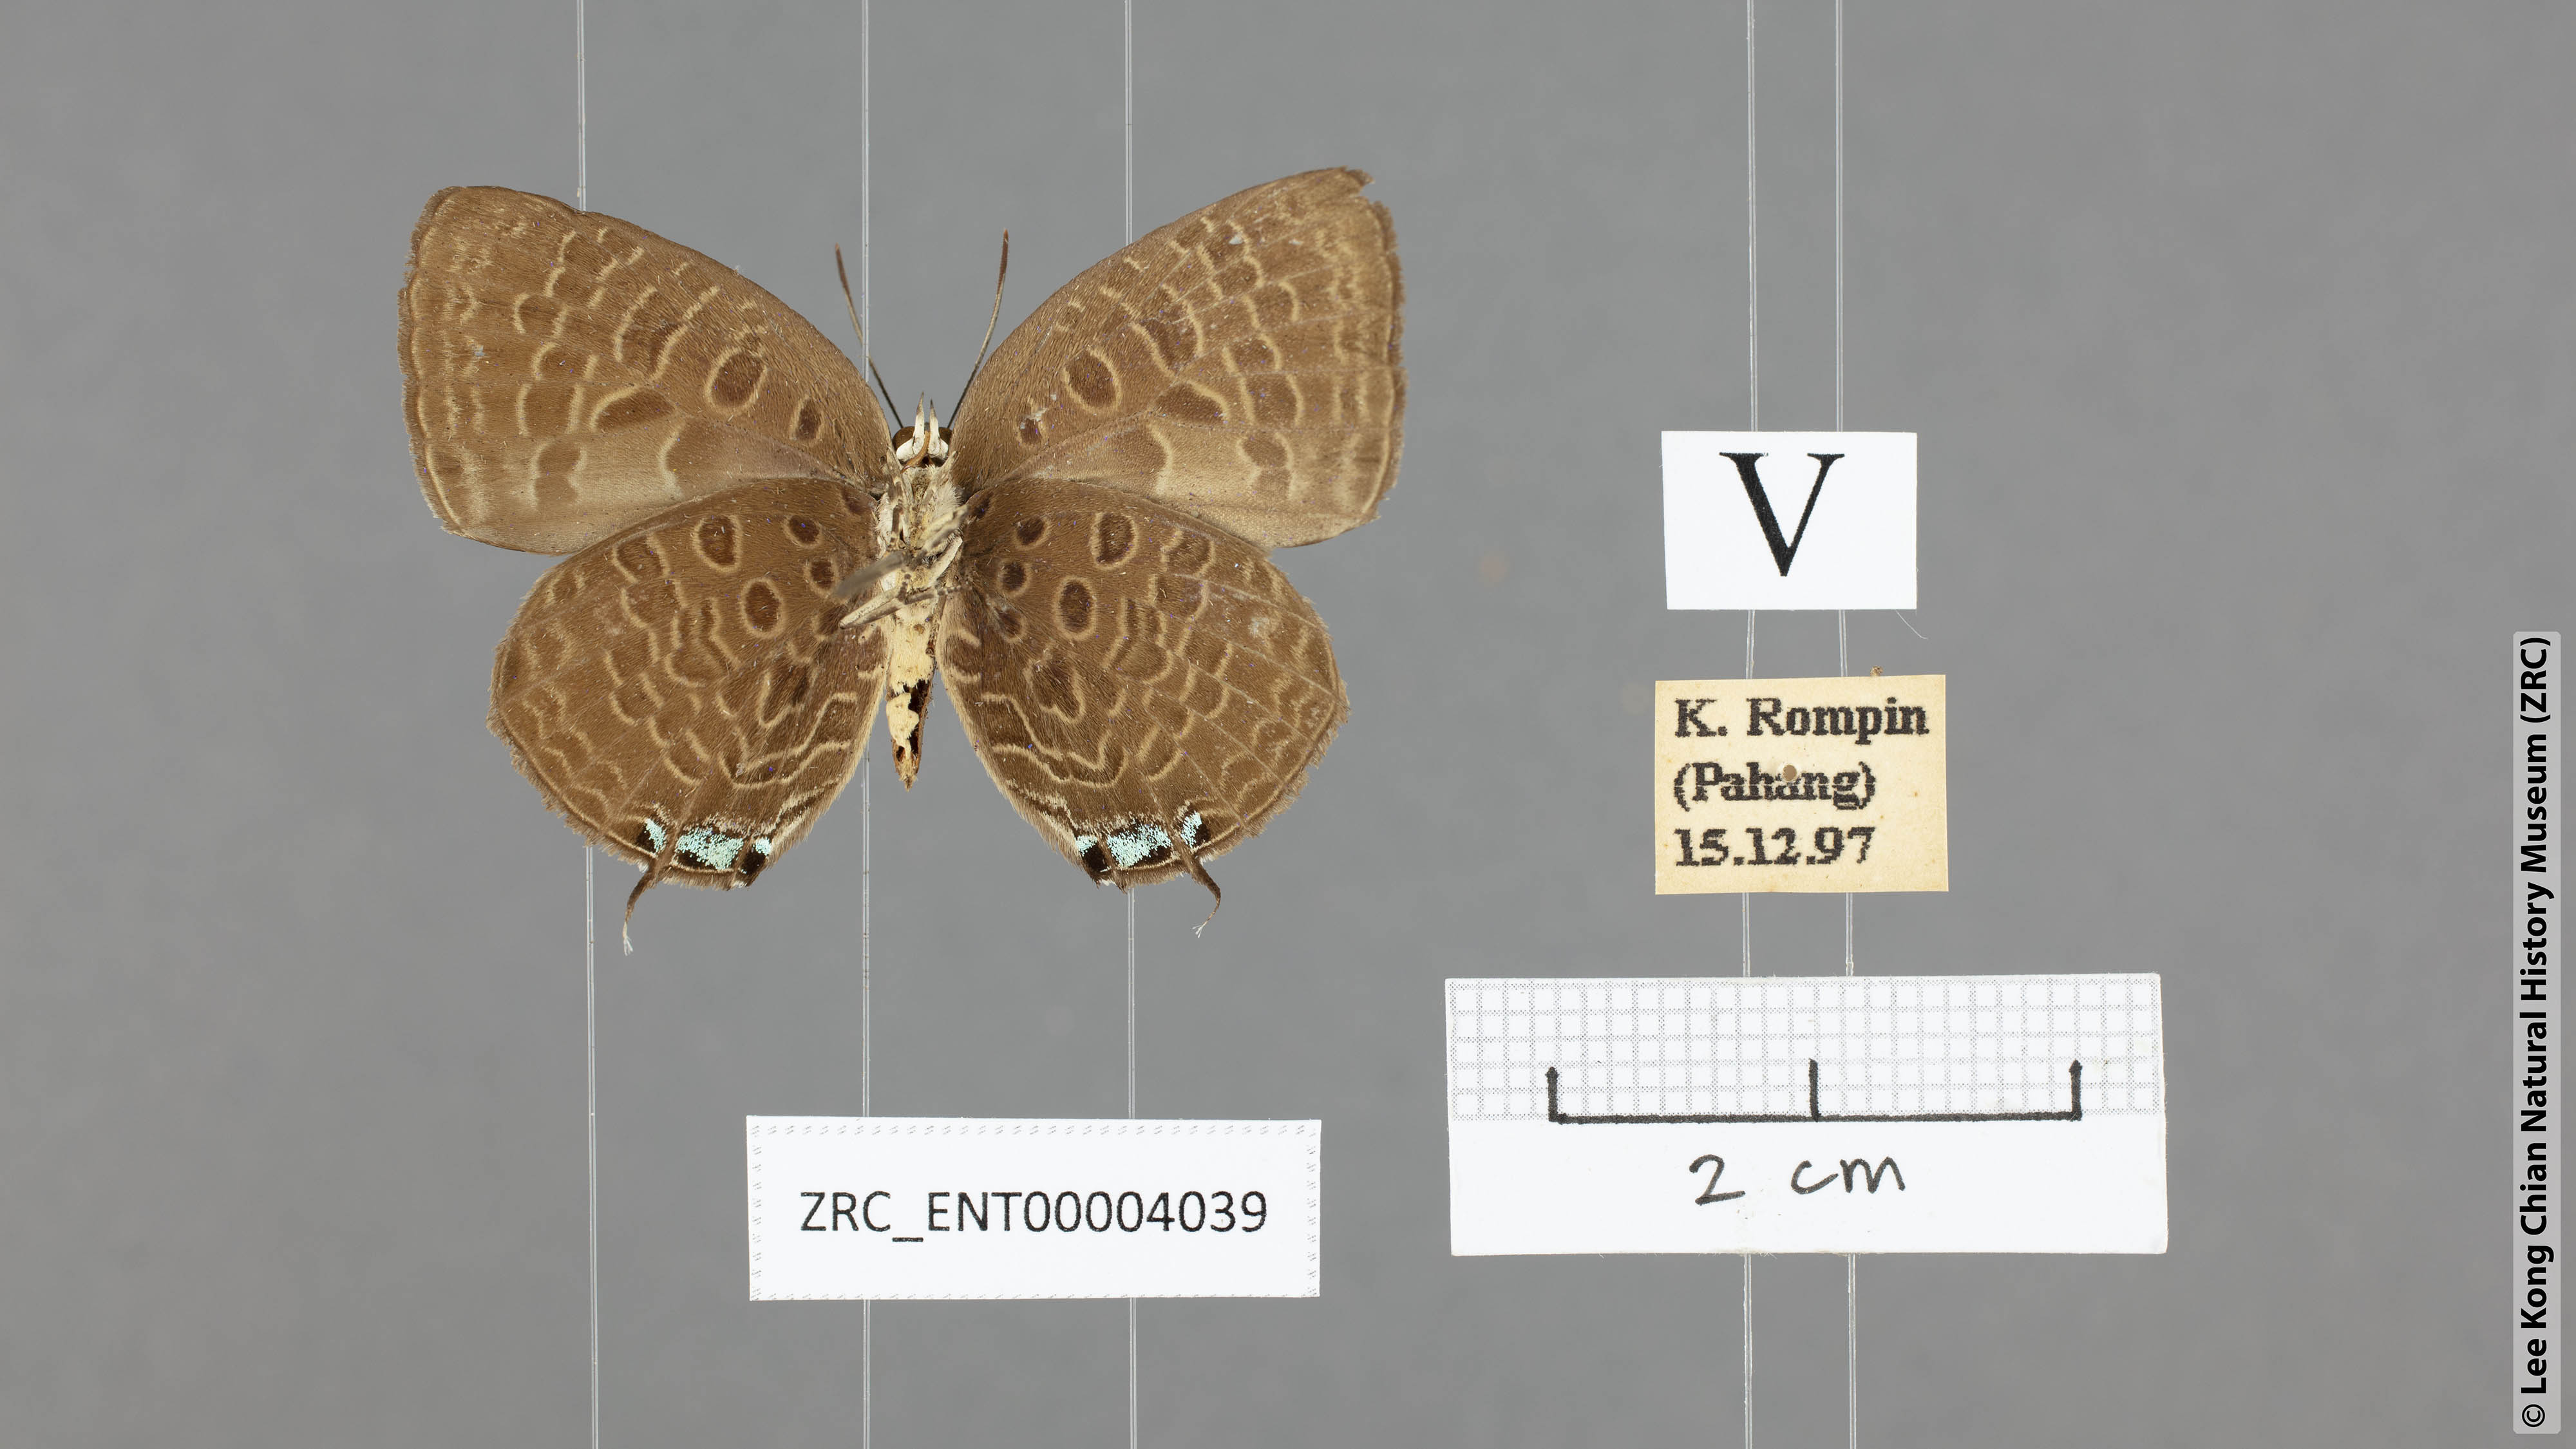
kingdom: Animalia
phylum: Arthropoda
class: Insecta
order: Lepidoptera
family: Lycaenidae
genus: Arhopala
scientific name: Arhopala pseudomuta
